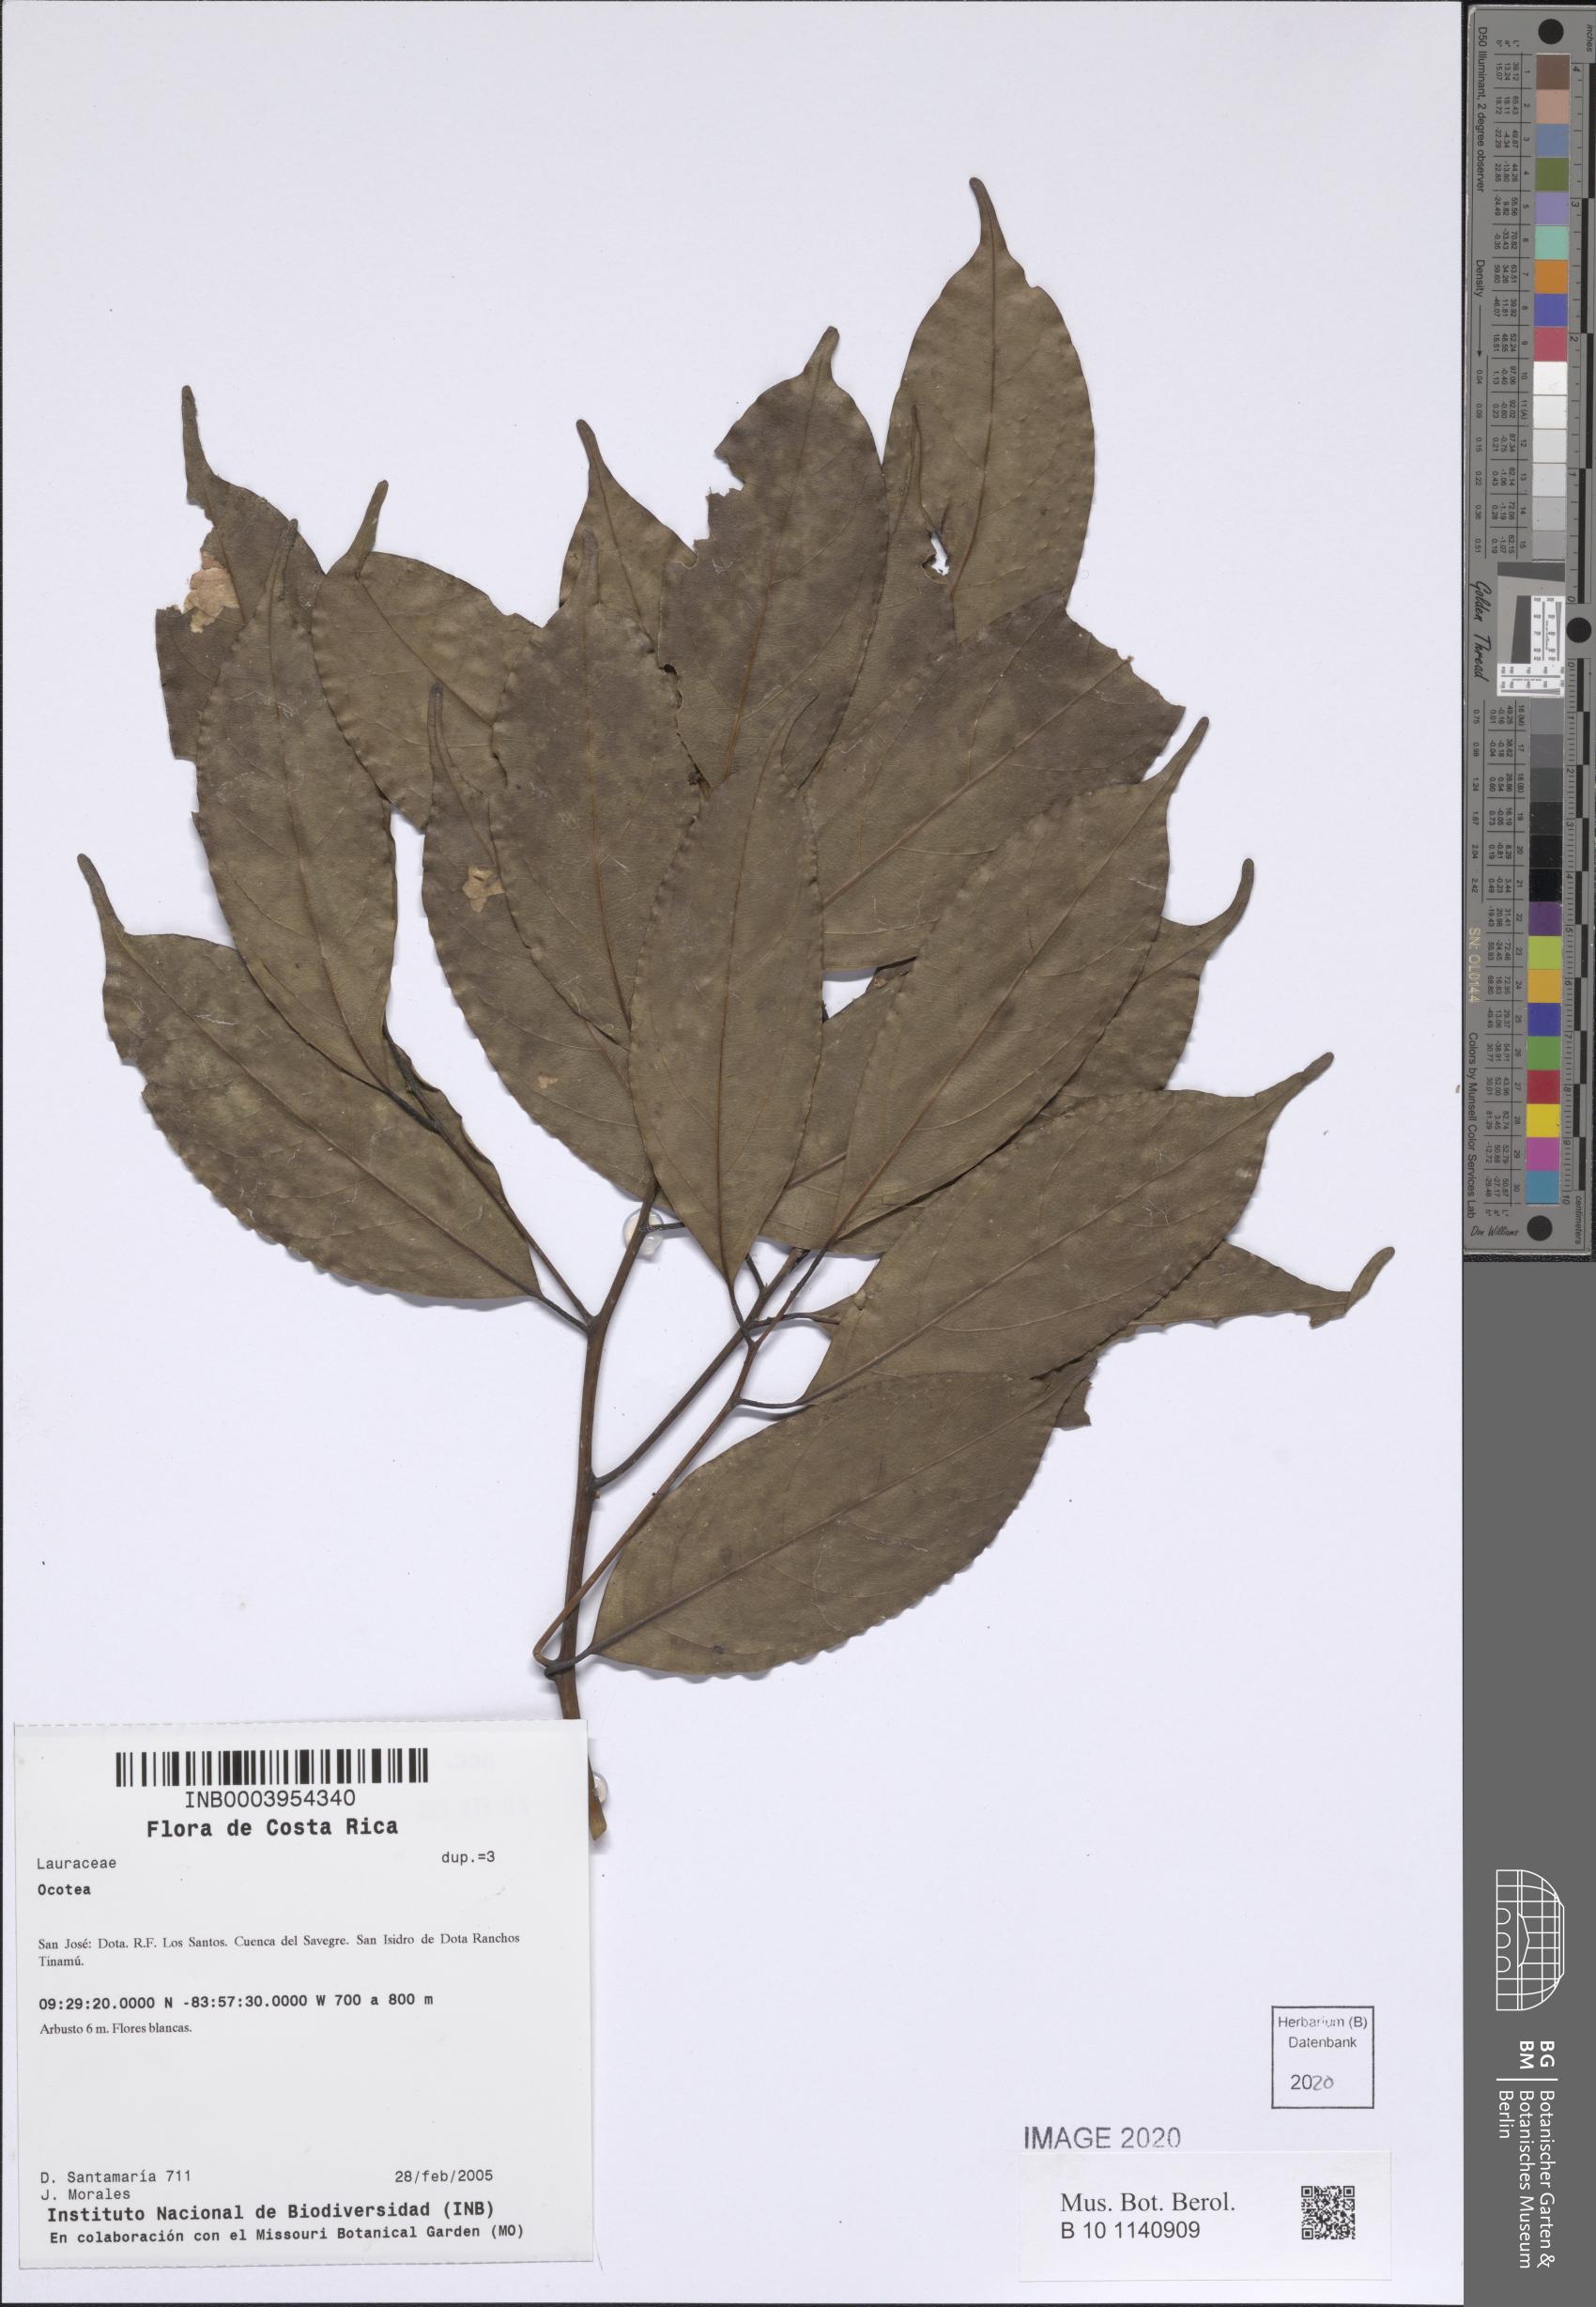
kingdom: Plantae
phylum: Tracheophyta
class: Magnoliopsida
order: Laurales
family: Lauraceae
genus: Ocotea
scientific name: Ocotea
